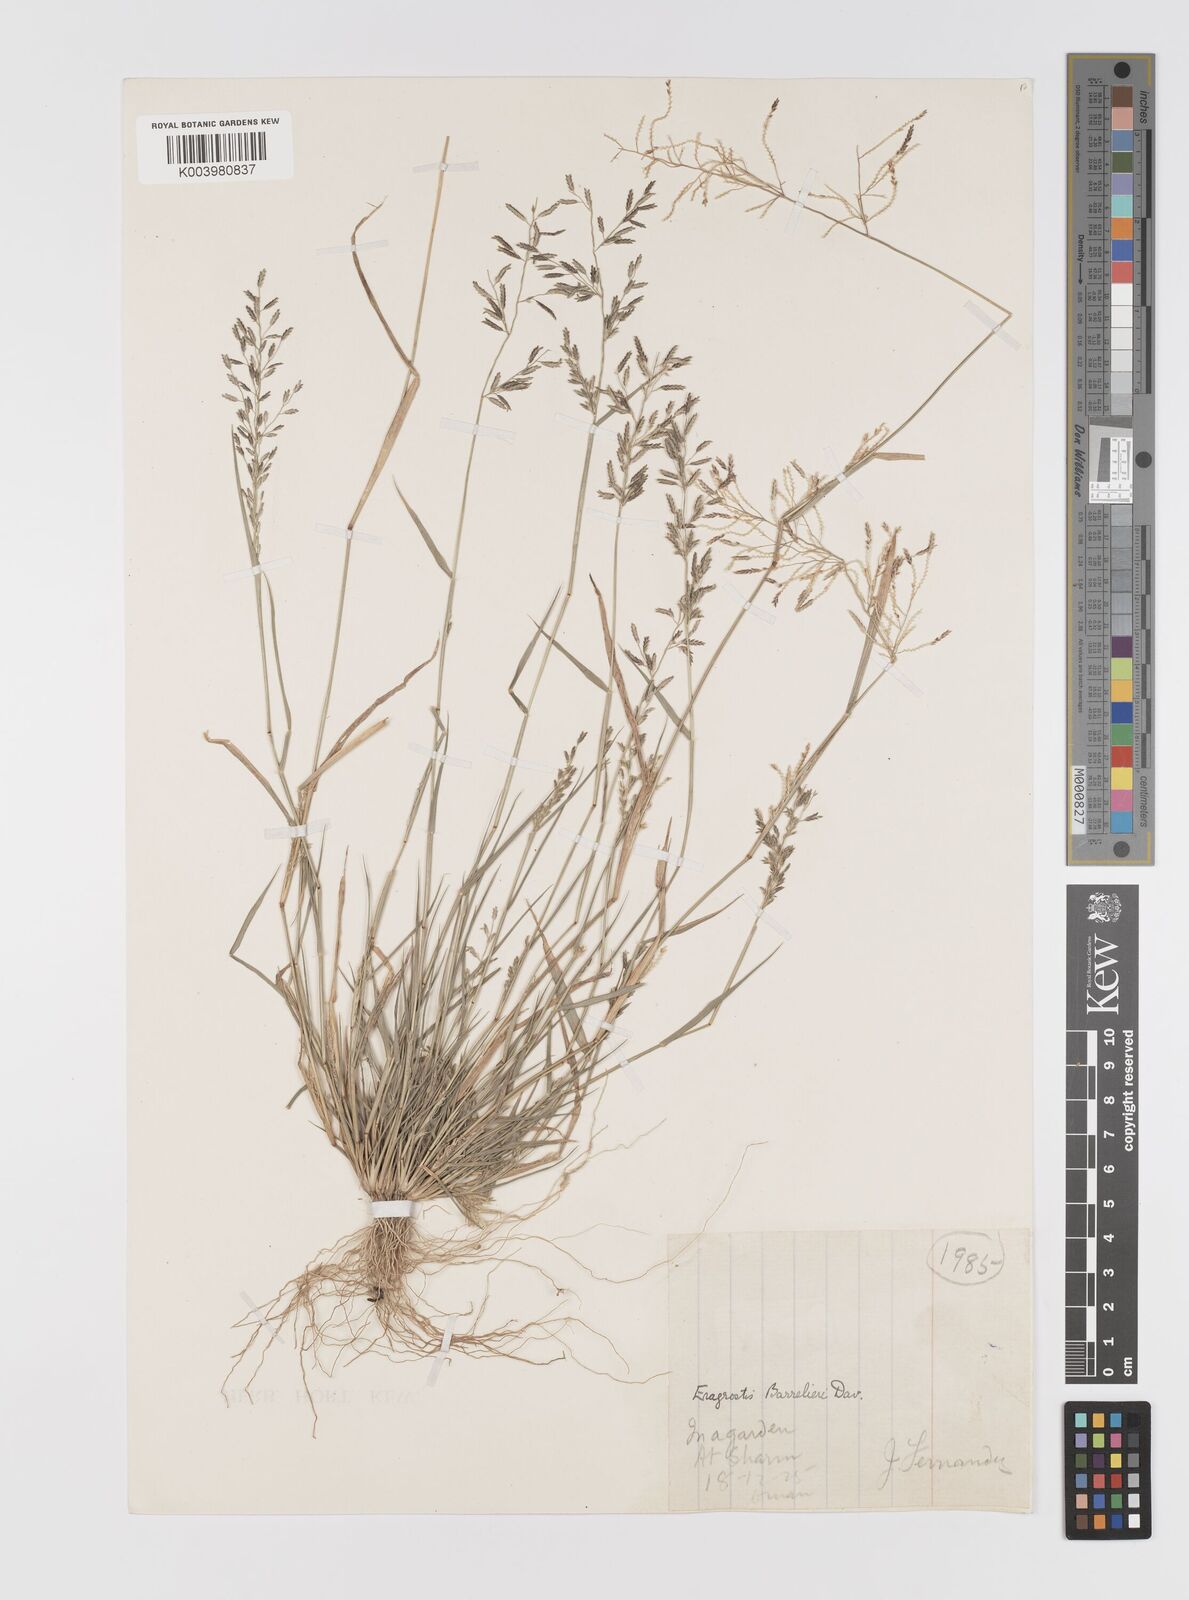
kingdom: Plantae
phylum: Tracheophyta
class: Liliopsida
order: Poales
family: Poaceae
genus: Eragrostis
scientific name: Eragrostis cilianensis
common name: Stinkgrass
